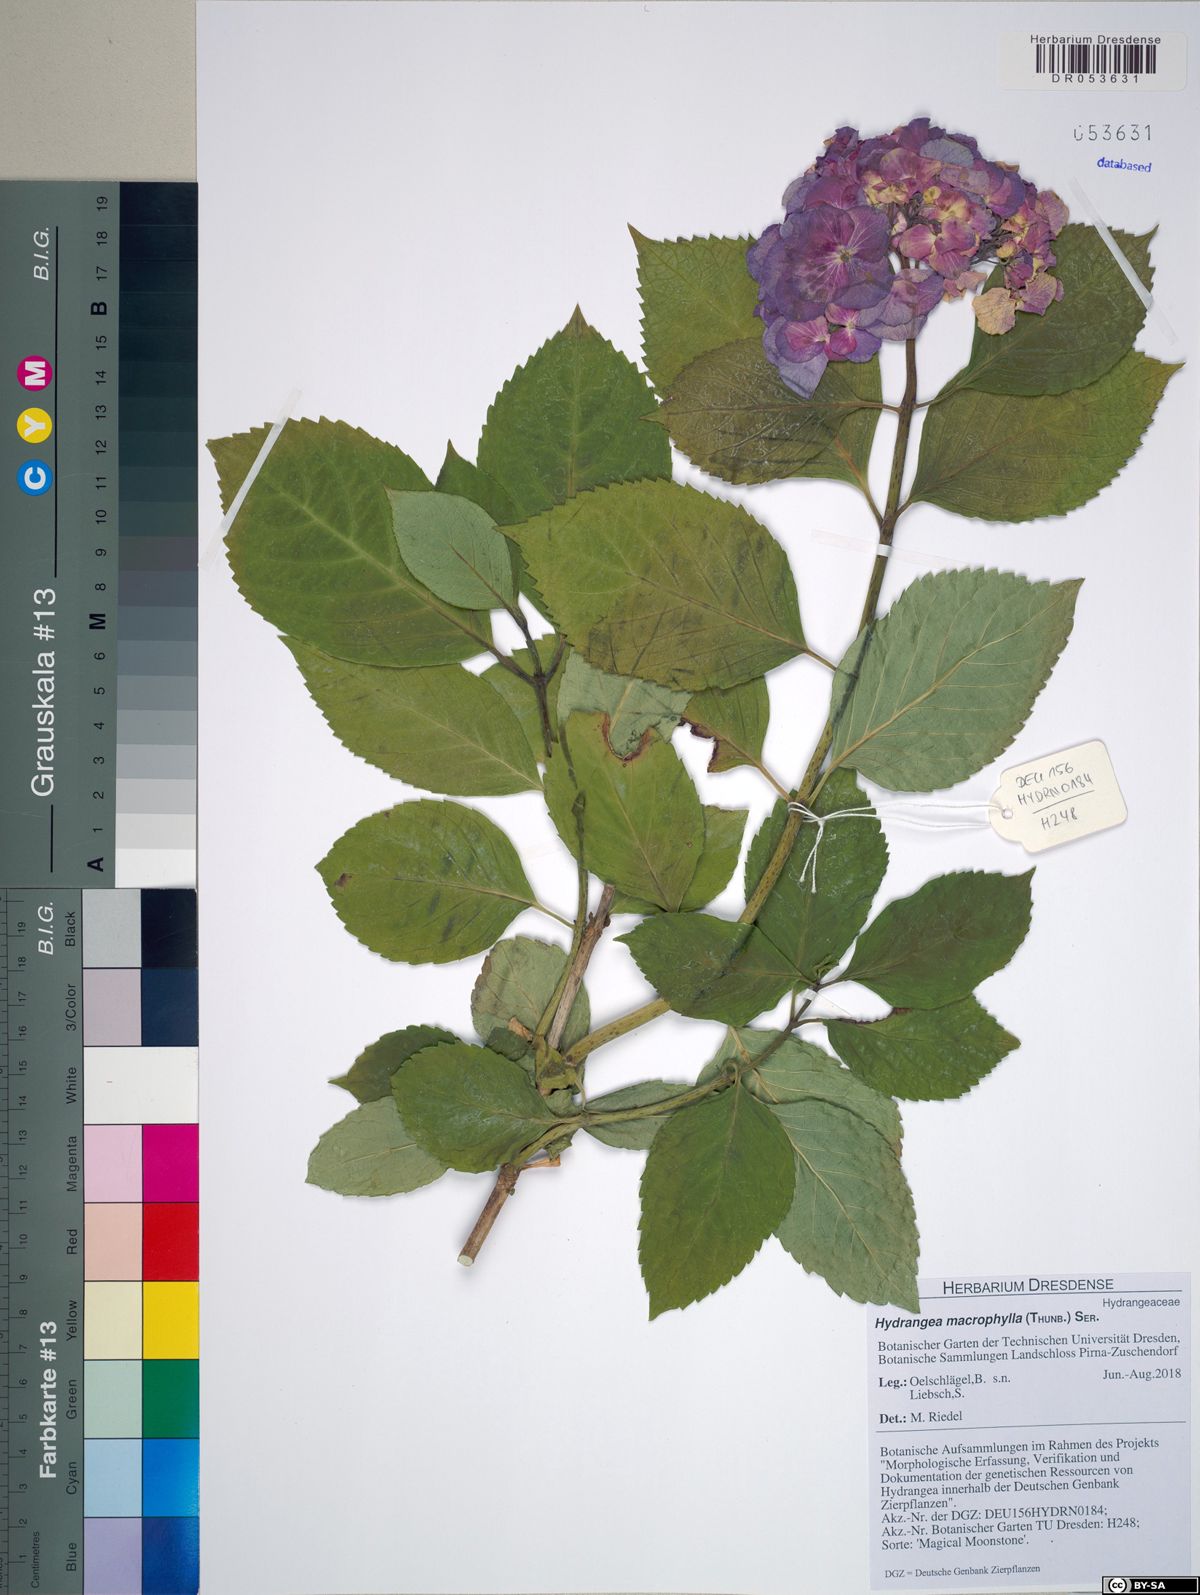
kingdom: Plantae
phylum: Tracheophyta
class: Magnoliopsida
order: Cornales
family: Hydrangeaceae
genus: Hydrangea
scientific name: Hydrangea macrophylla
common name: Hydrangea
